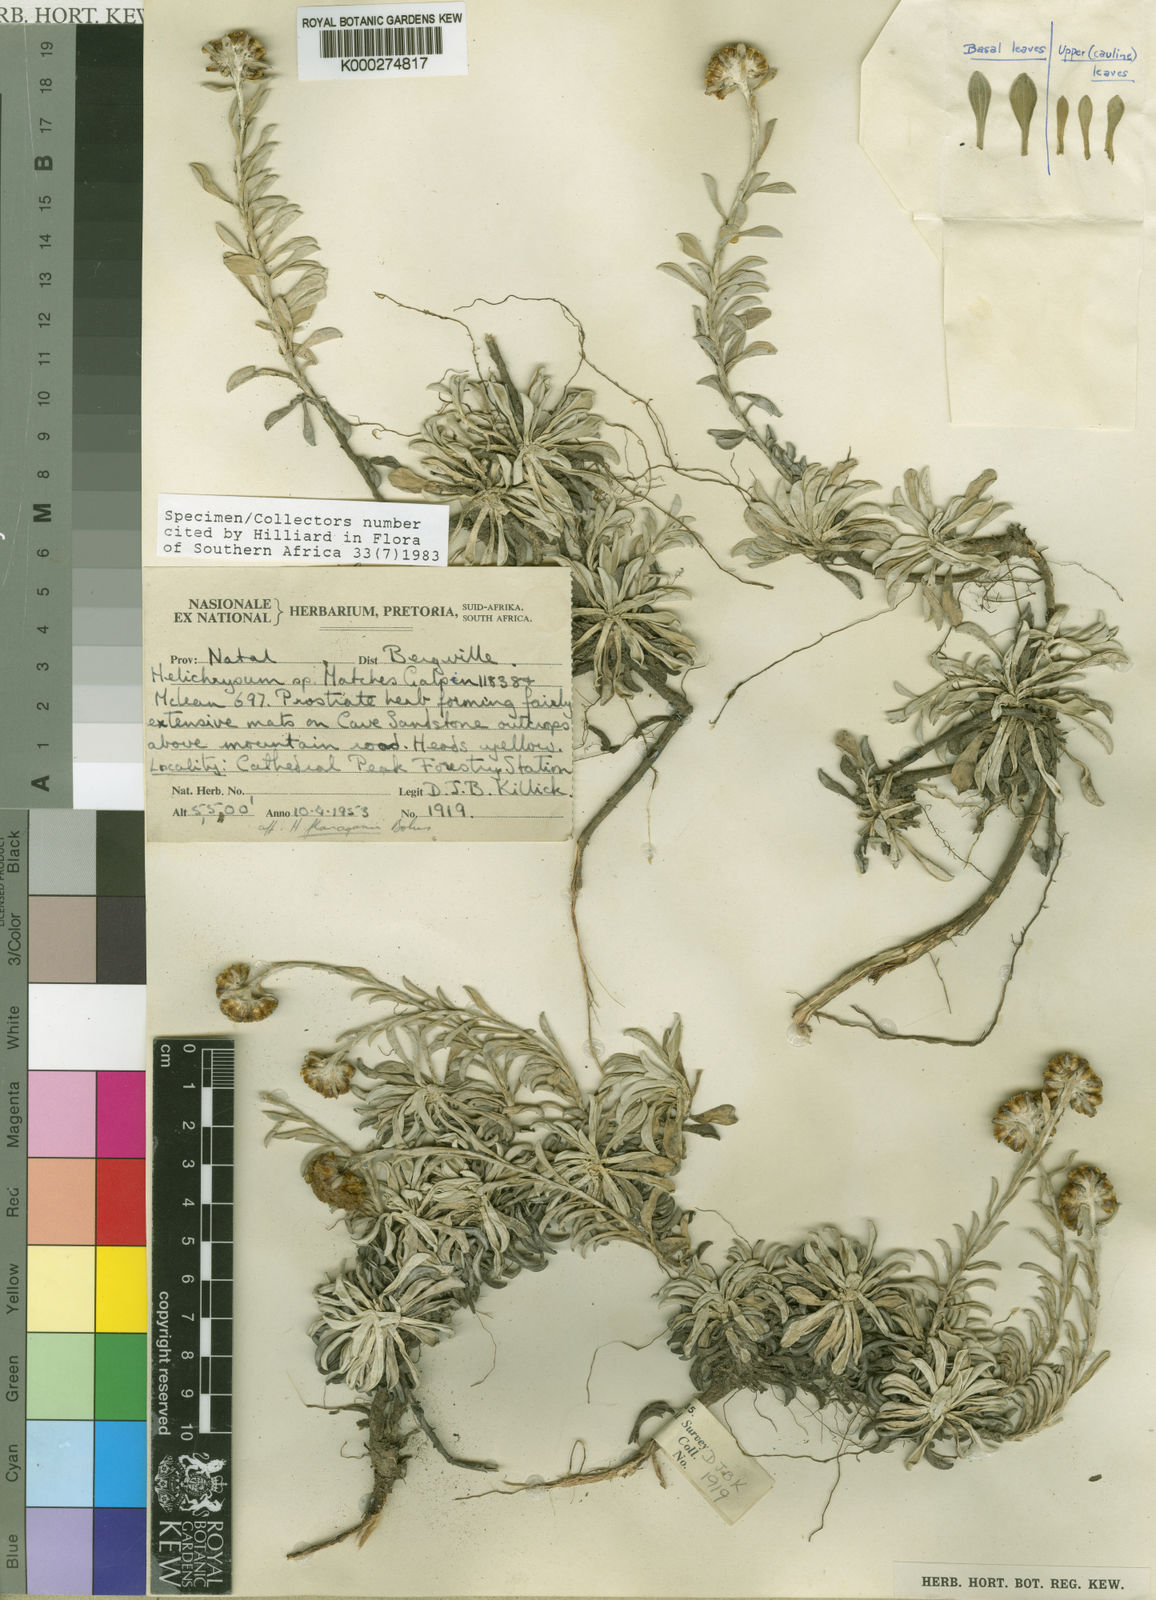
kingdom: Plantae
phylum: Tracheophyta
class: Magnoliopsida
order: Asterales
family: Asteraceae
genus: Helichrysum
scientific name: Helichrysum albirosulatum
